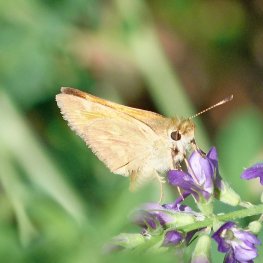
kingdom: Animalia
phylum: Arthropoda
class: Insecta
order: Lepidoptera
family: Hesperiidae
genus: Ochlodes
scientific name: Ochlodes sylvanoides
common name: Woodland Skipper
